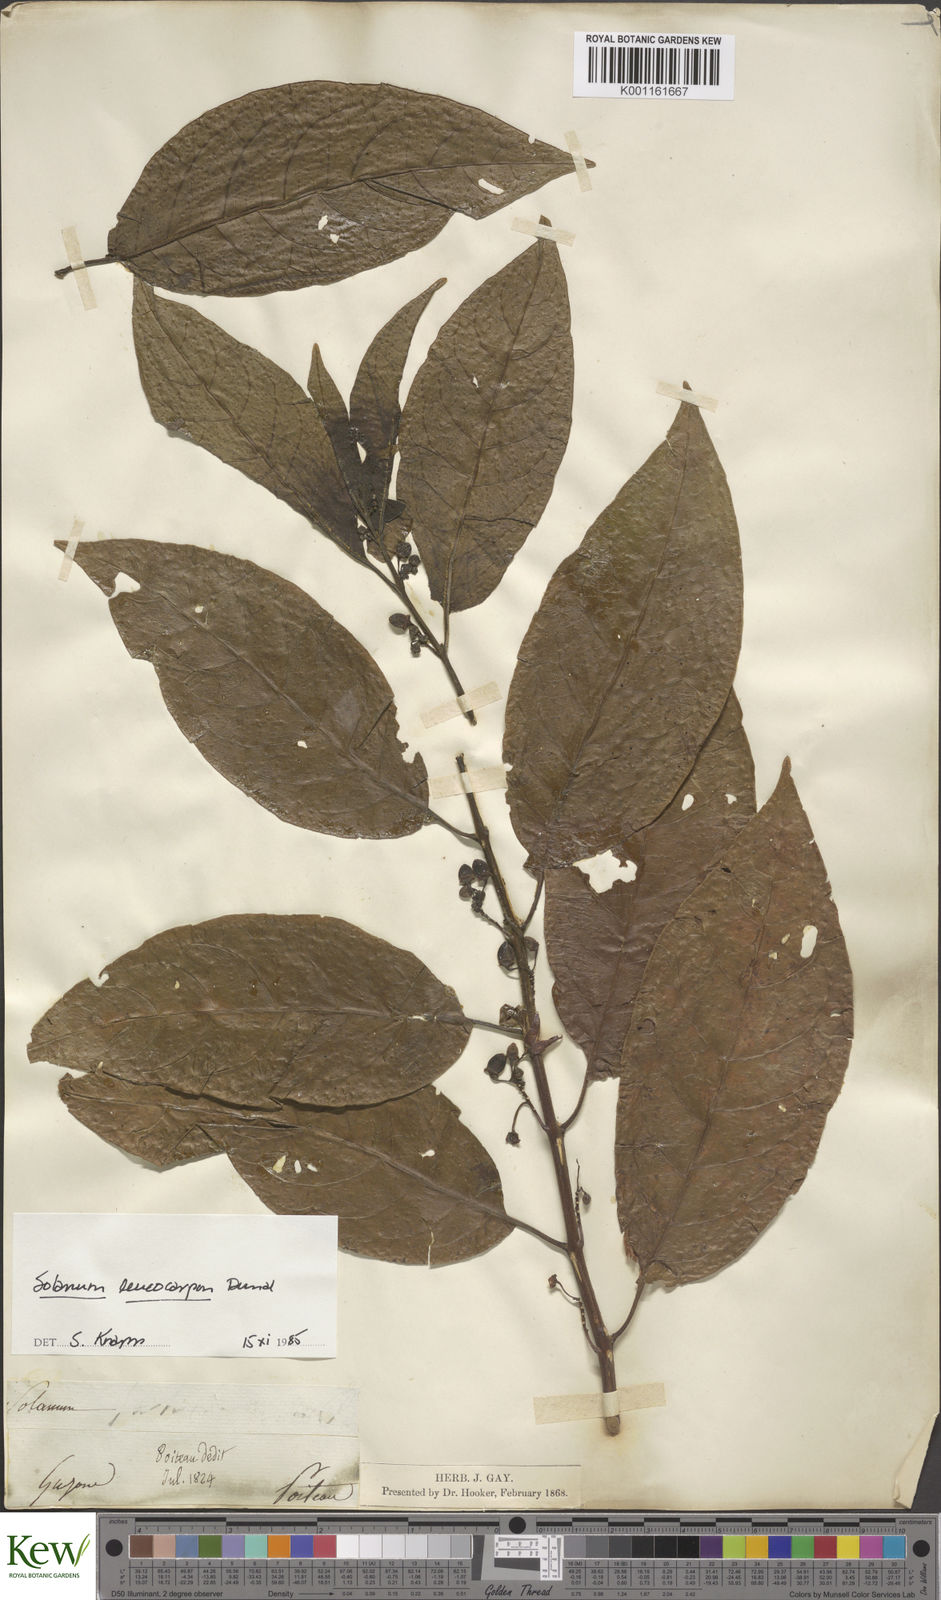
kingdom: Plantae
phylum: Tracheophyta
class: Magnoliopsida
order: Solanales
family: Solanaceae
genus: Solanum
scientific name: Solanum leucocarpon
